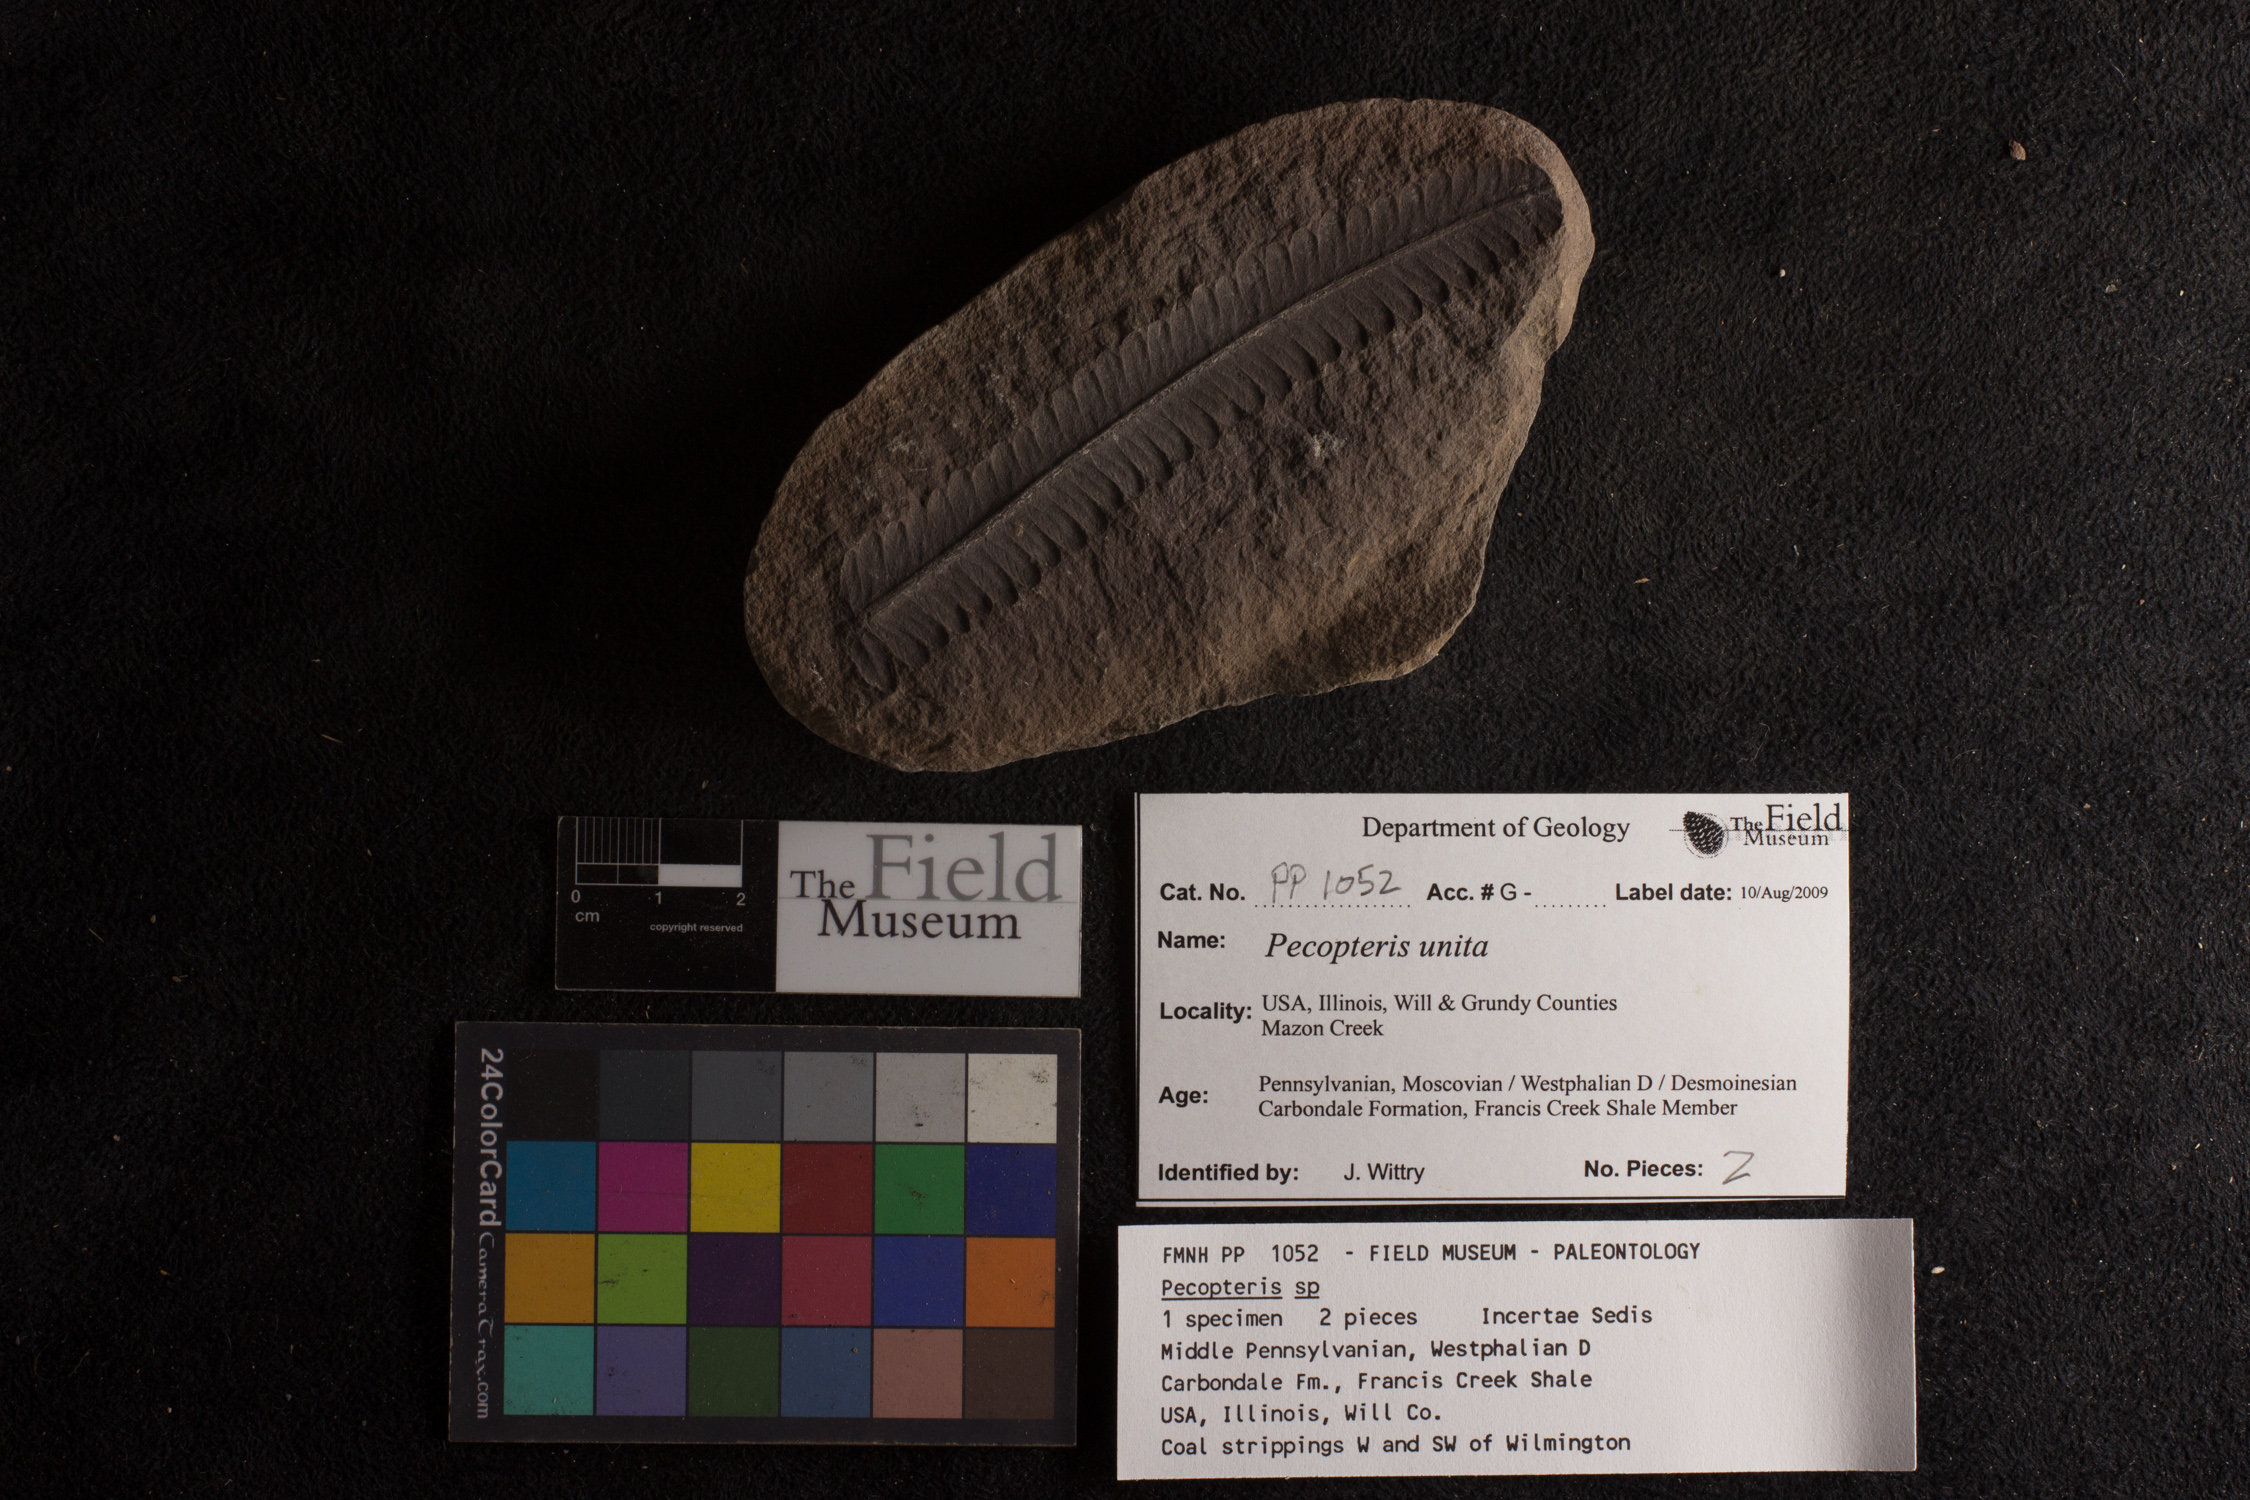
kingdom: Plantae
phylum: Tracheophyta
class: Polypodiopsida
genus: Diplazites
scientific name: Diplazites
